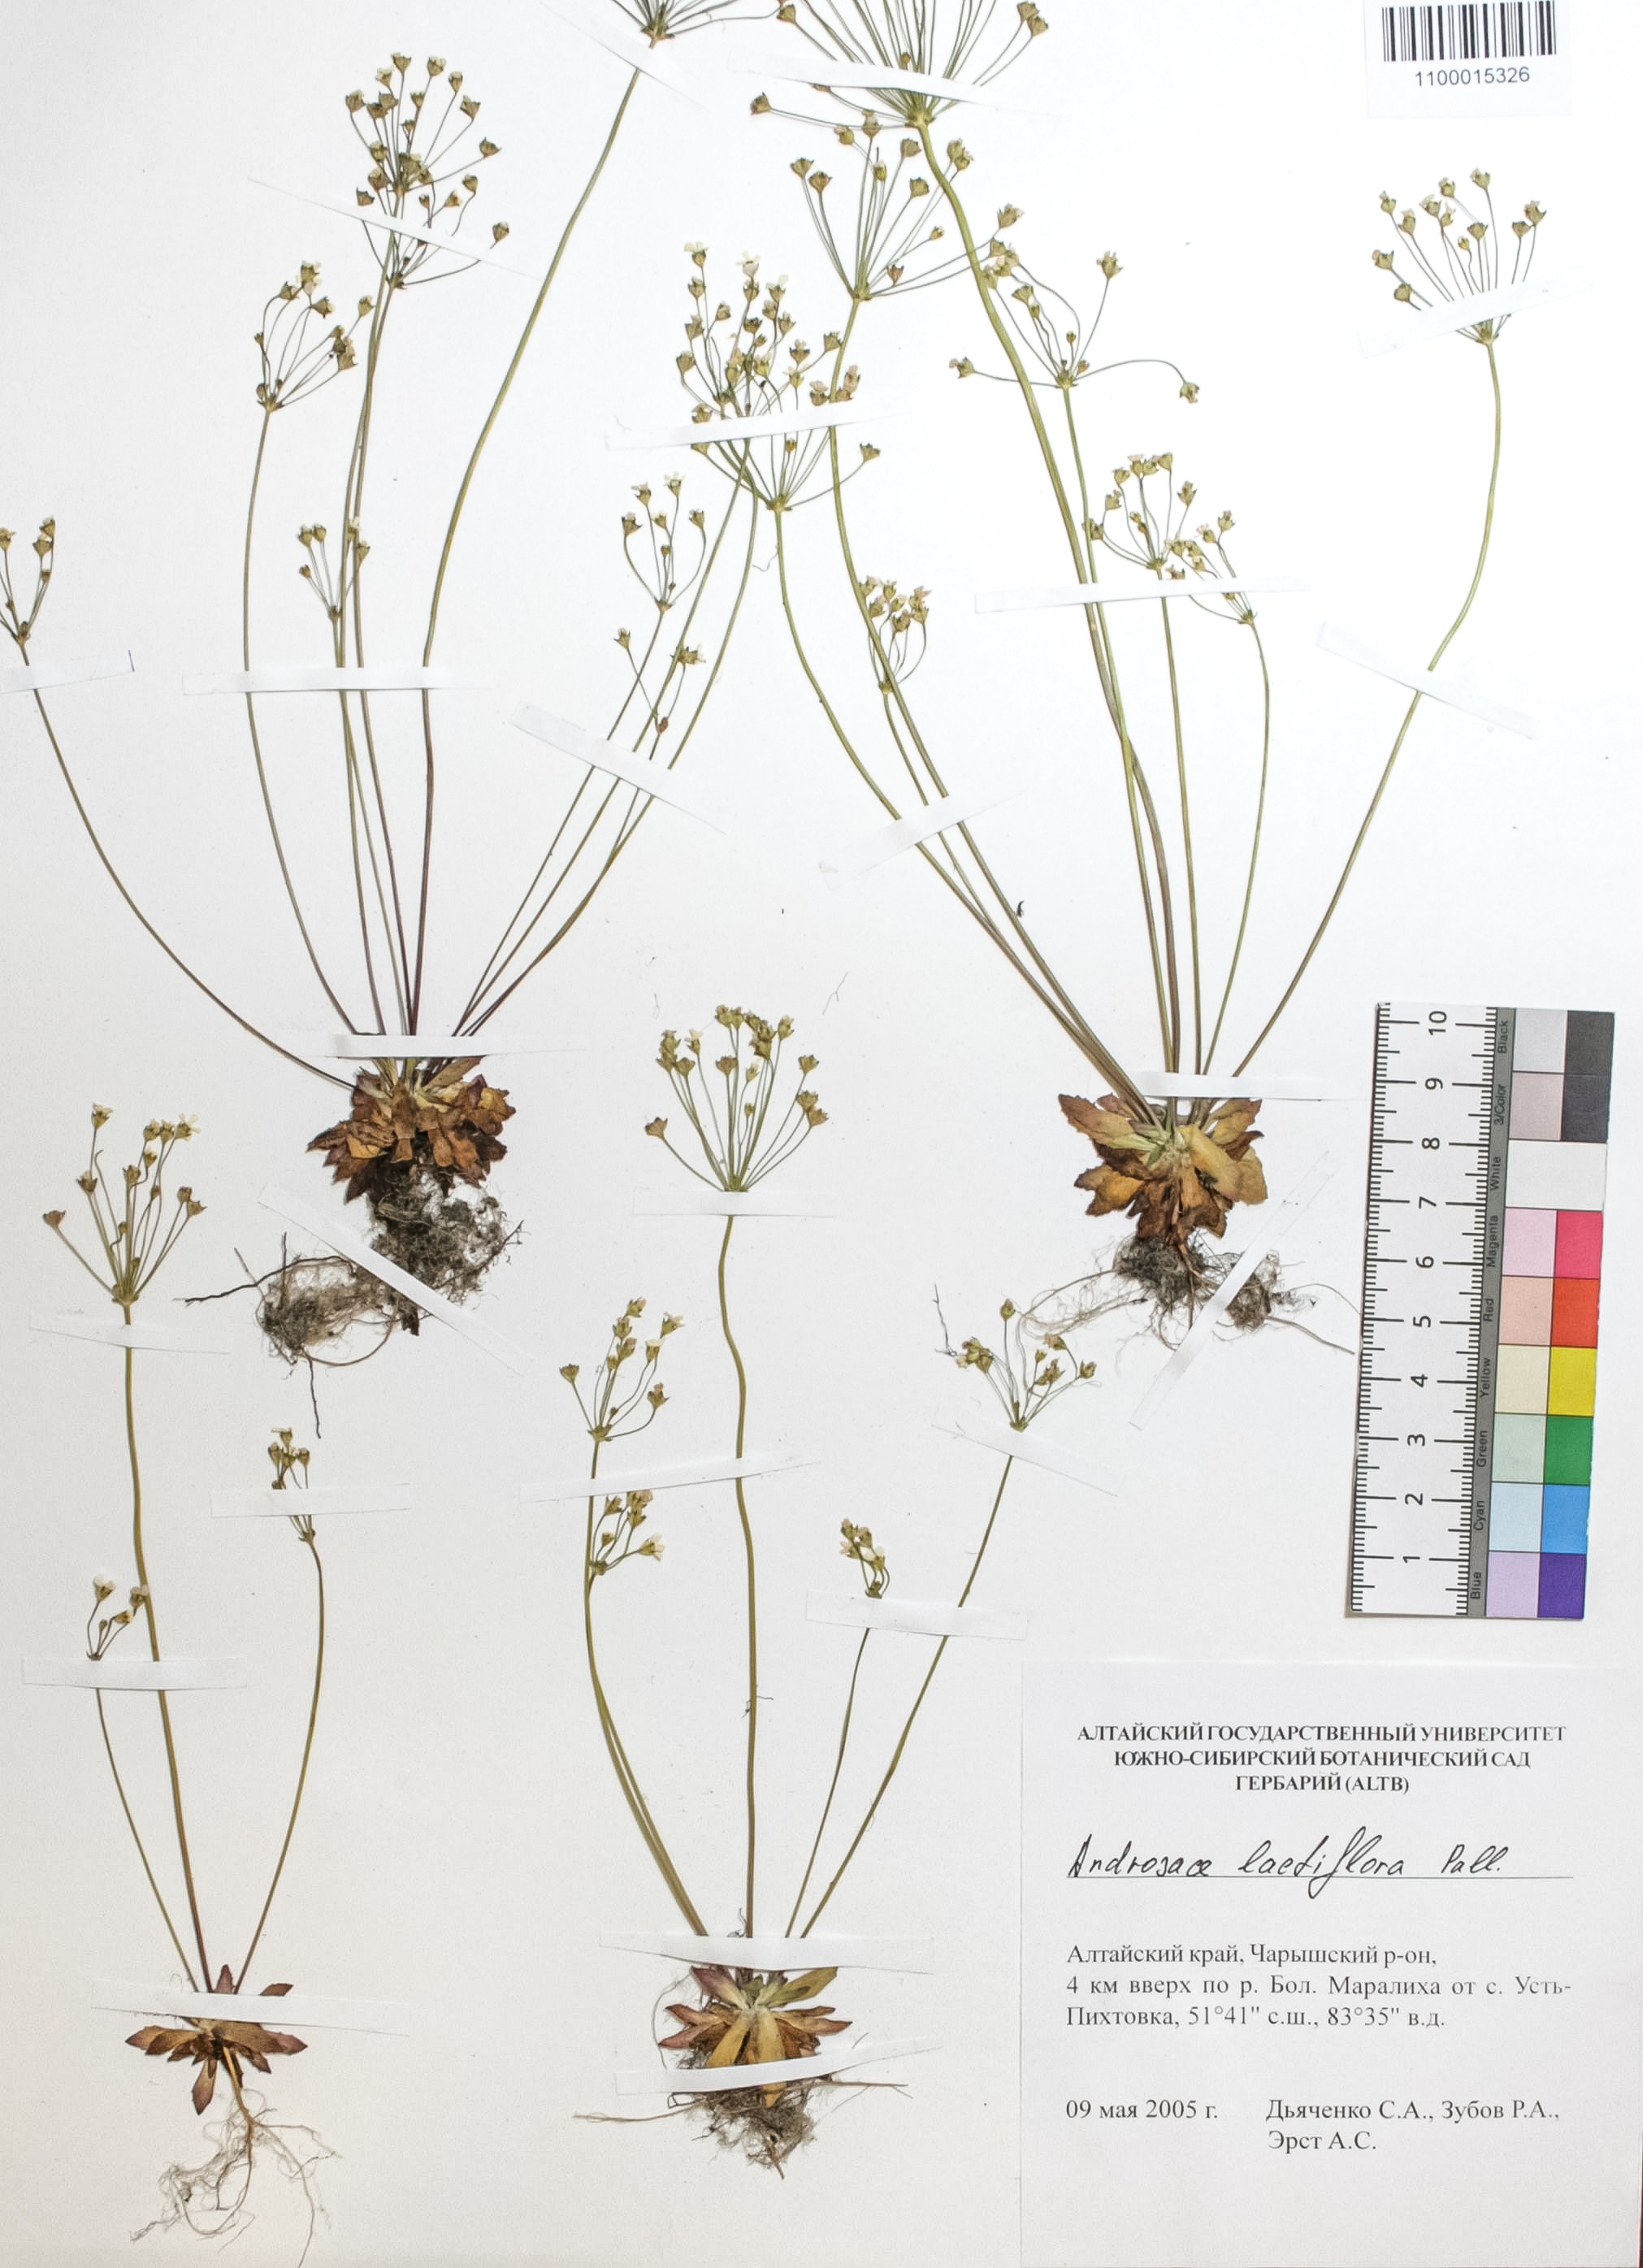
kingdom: Plantae
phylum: Tracheophyta
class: Magnoliopsida
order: Ericales
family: Primulaceae
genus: Androsace
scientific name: Androsace lactiflora
